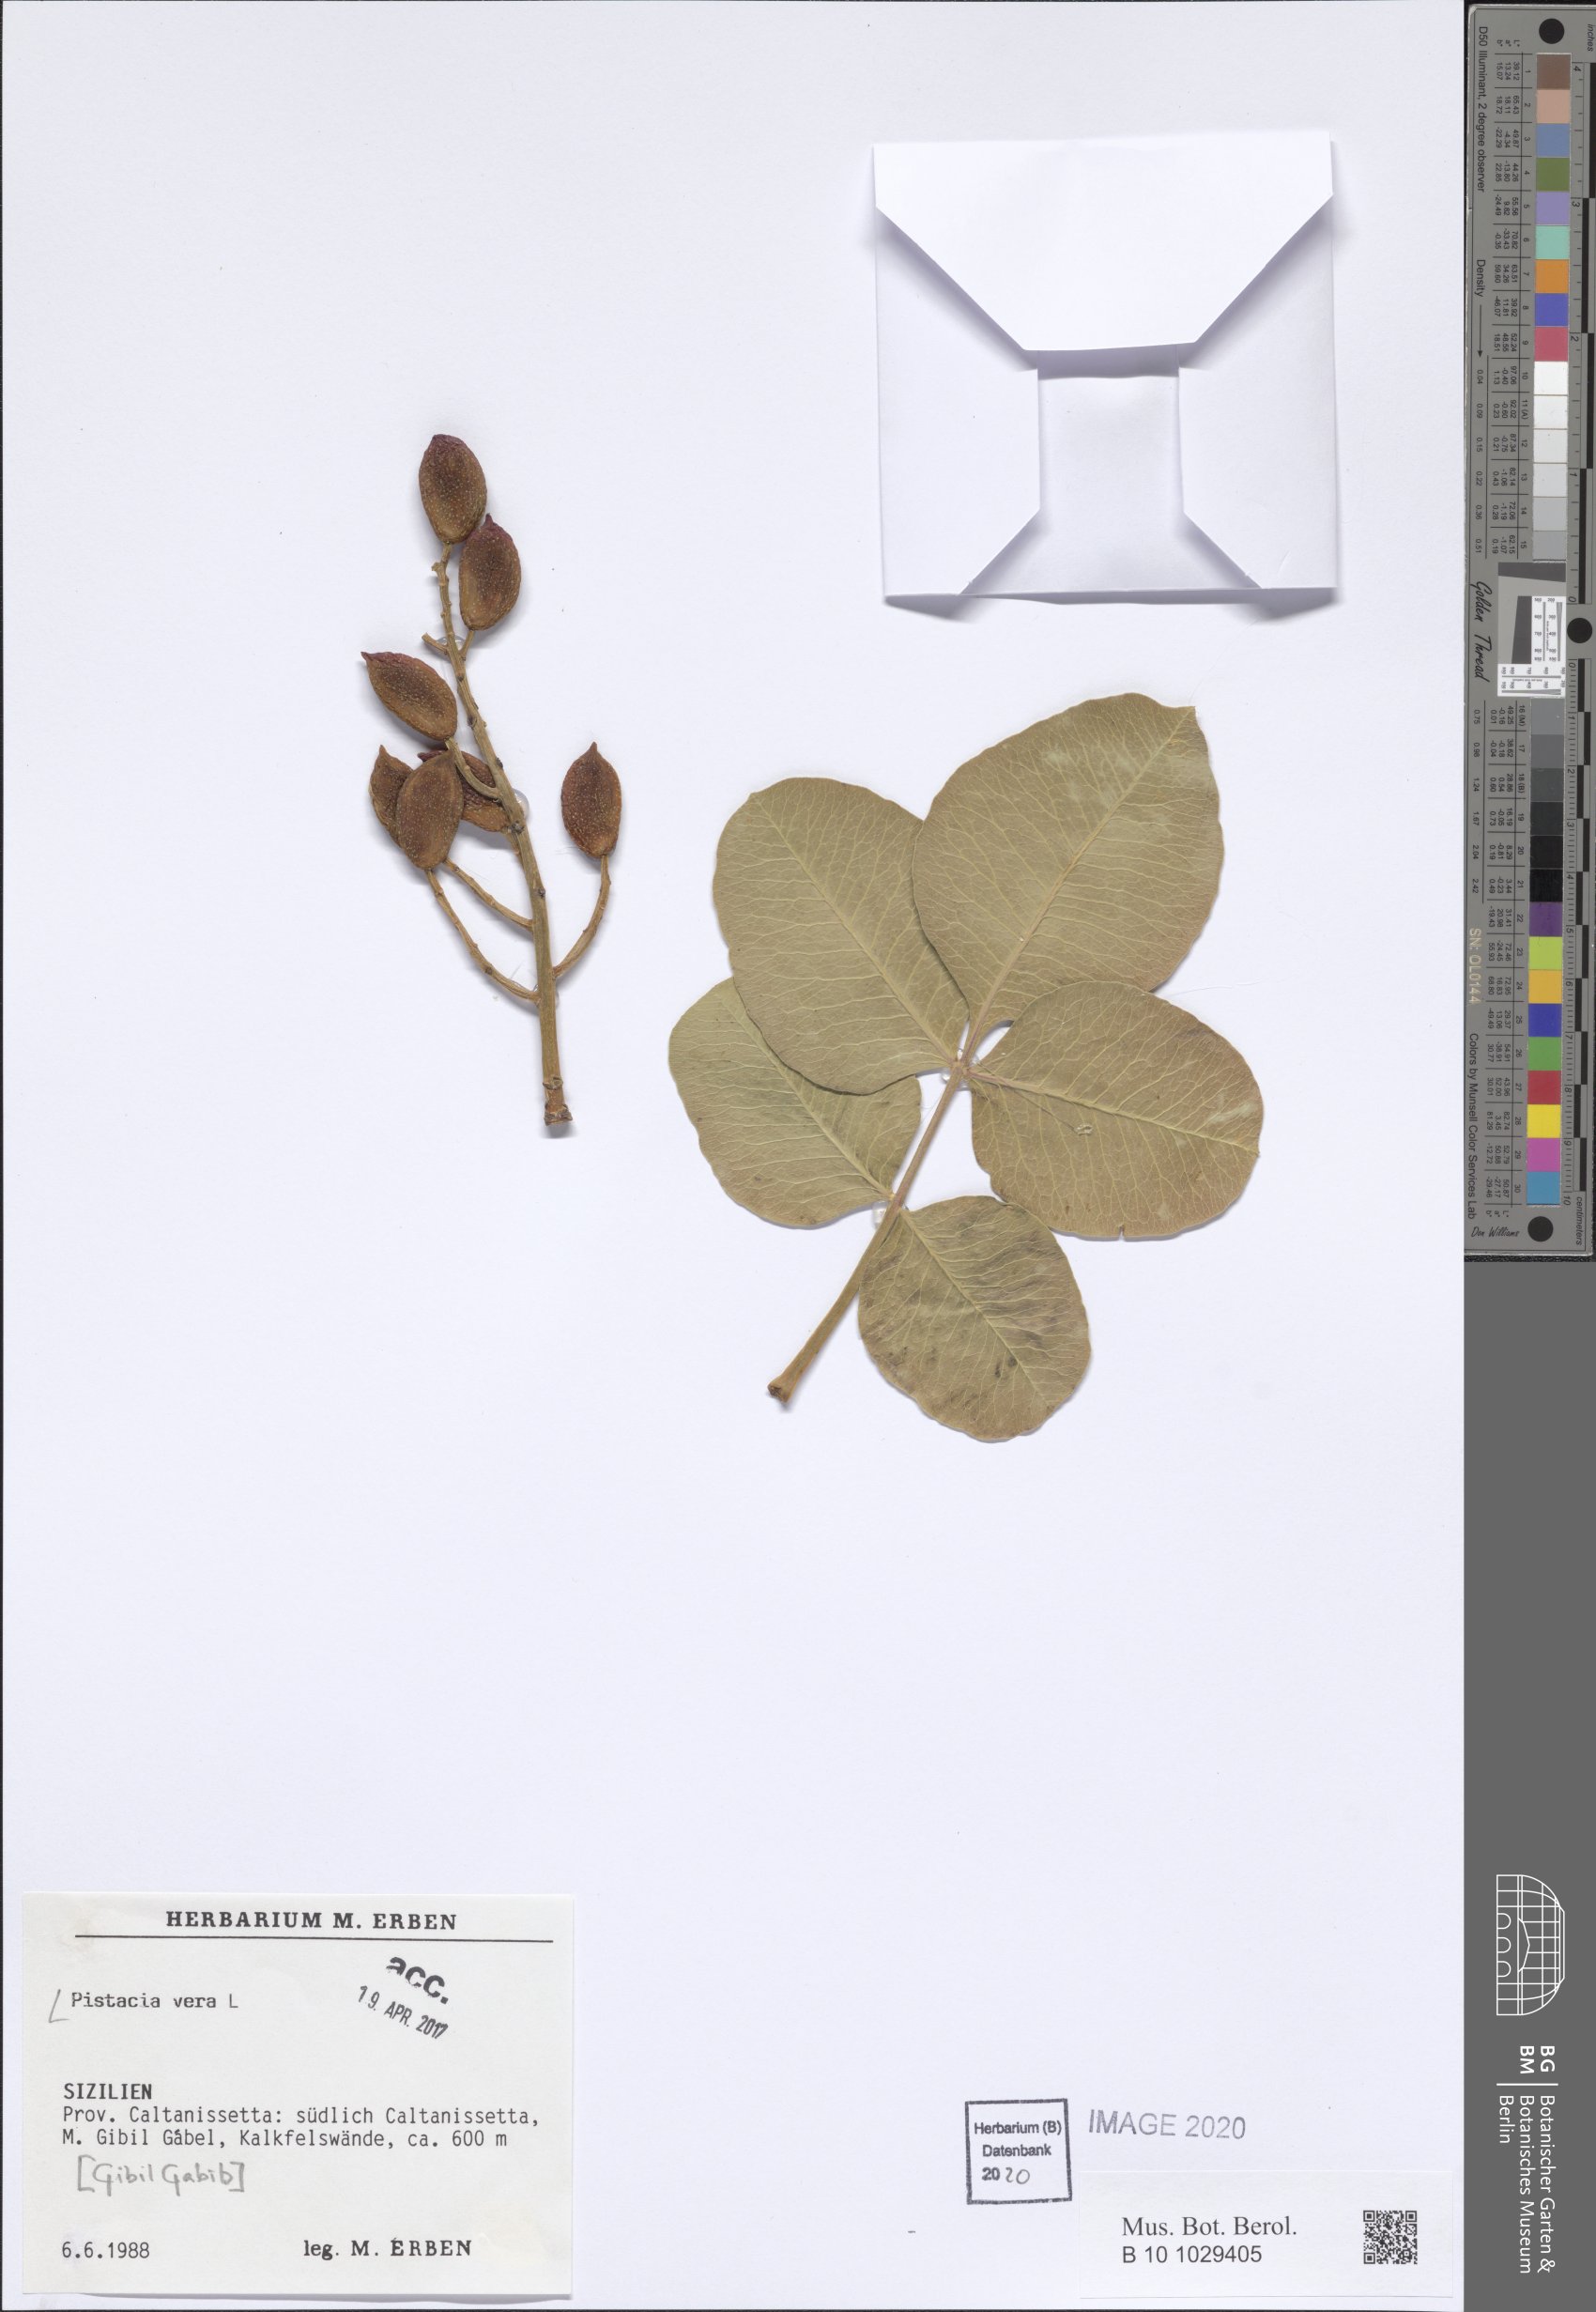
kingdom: Plantae
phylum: Tracheophyta
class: Magnoliopsida
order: Sapindales
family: Anacardiaceae
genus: Pistacia
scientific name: Pistacia vera
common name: Pistachio
